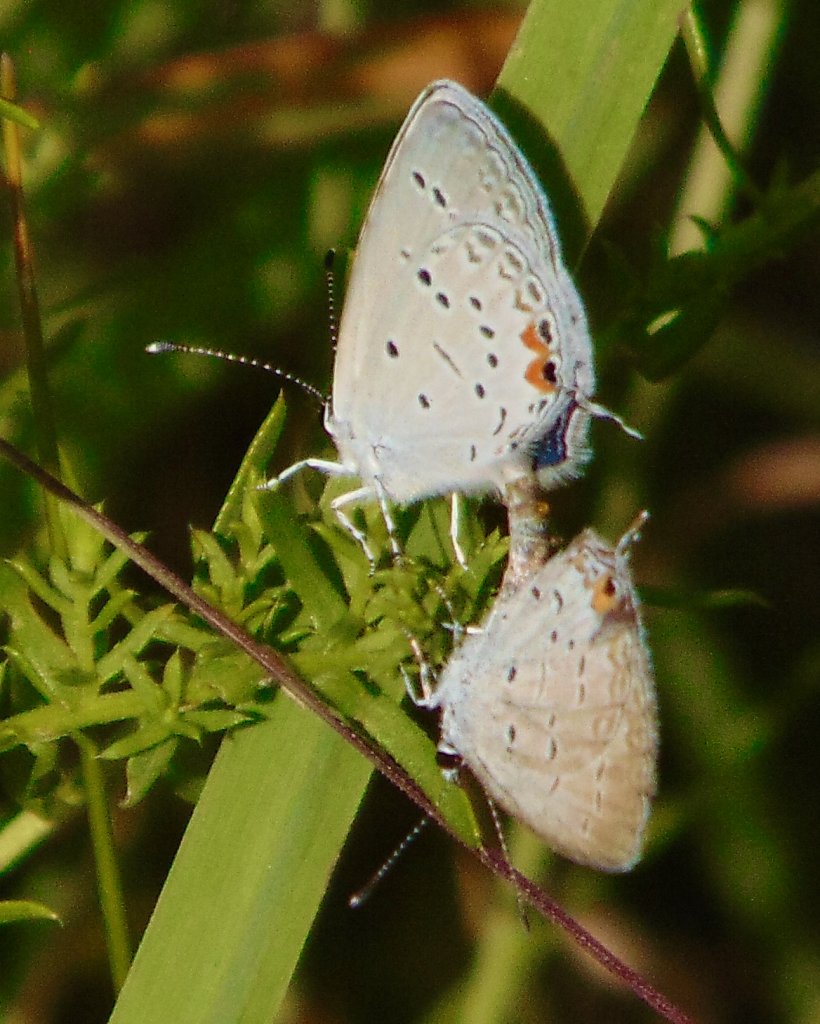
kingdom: Animalia
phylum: Arthropoda
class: Insecta
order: Lepidoptera
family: Lycaenidae
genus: Elkalyce
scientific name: Elkalyce comyntas
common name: Eastern Tailed-Blue
